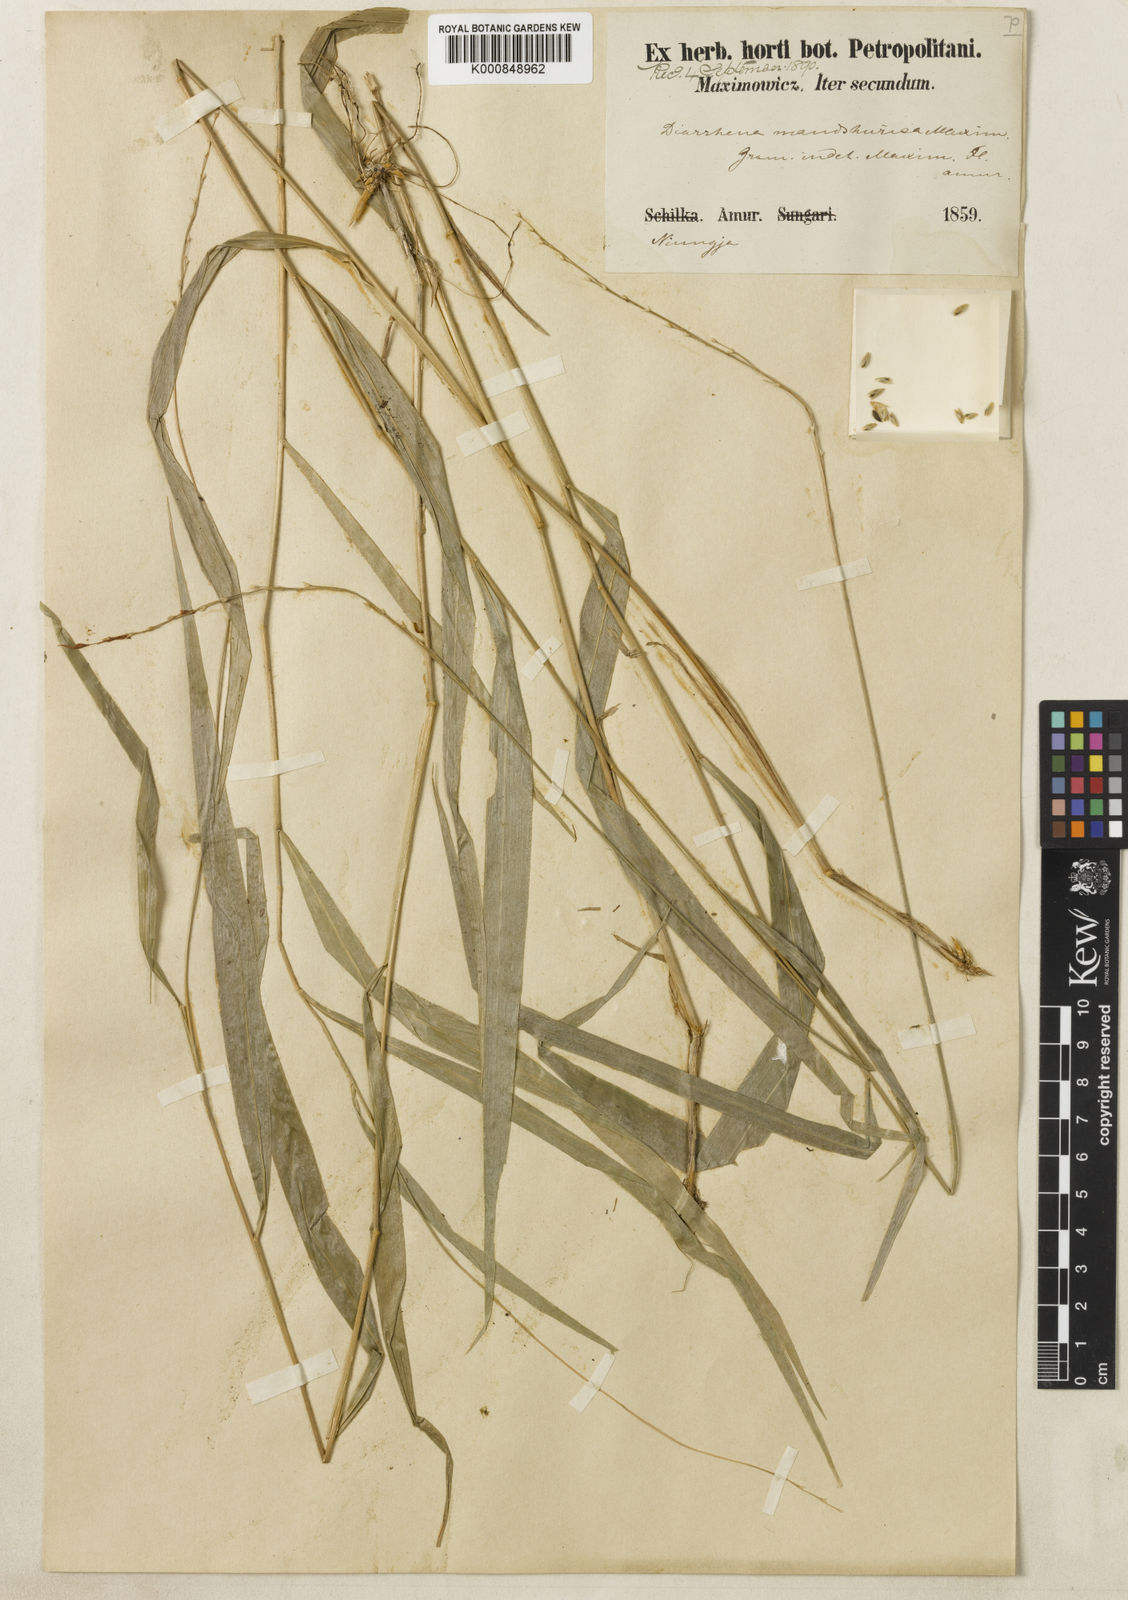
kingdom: Plantae
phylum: Tracheophyta
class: Liliopsida
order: Poales
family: Poaceae
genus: Diarrhena
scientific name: Diarrhena mandshurica
